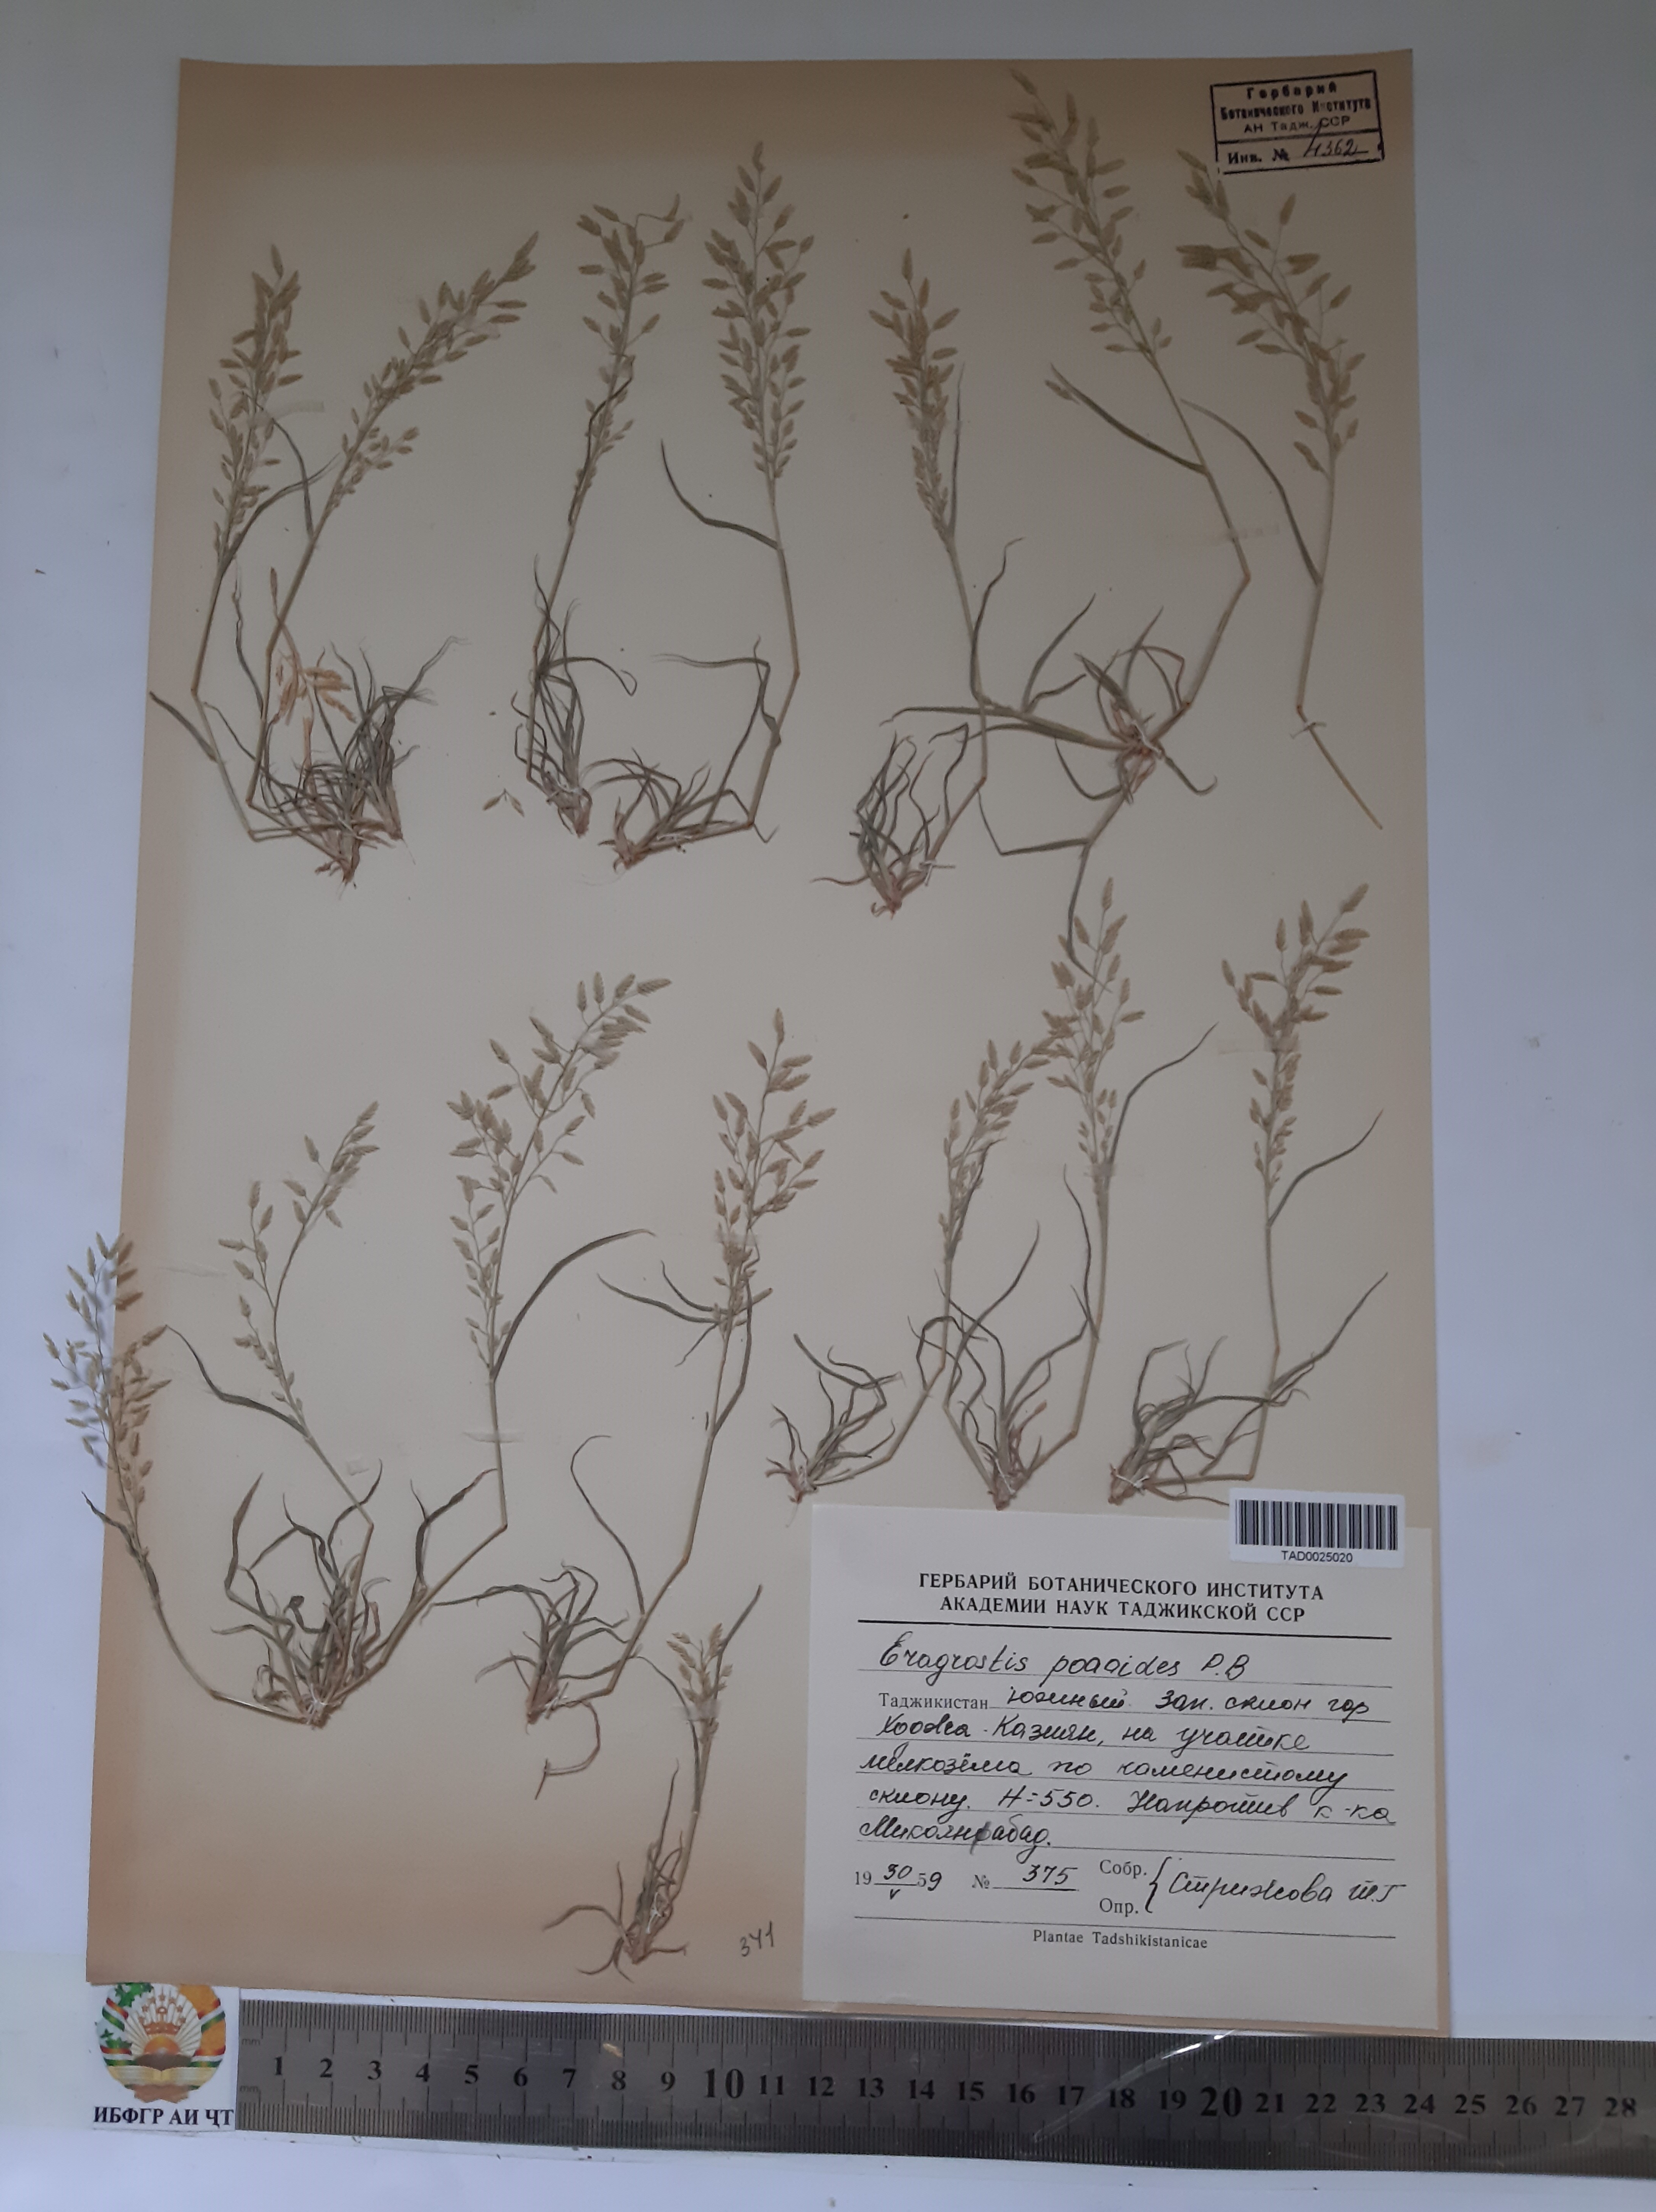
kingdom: Plantae
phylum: Tracheophyta
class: Liliopsida
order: Poales
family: Poaceae
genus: Eragrostis
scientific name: Eragrostis minor
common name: Small love-grass
